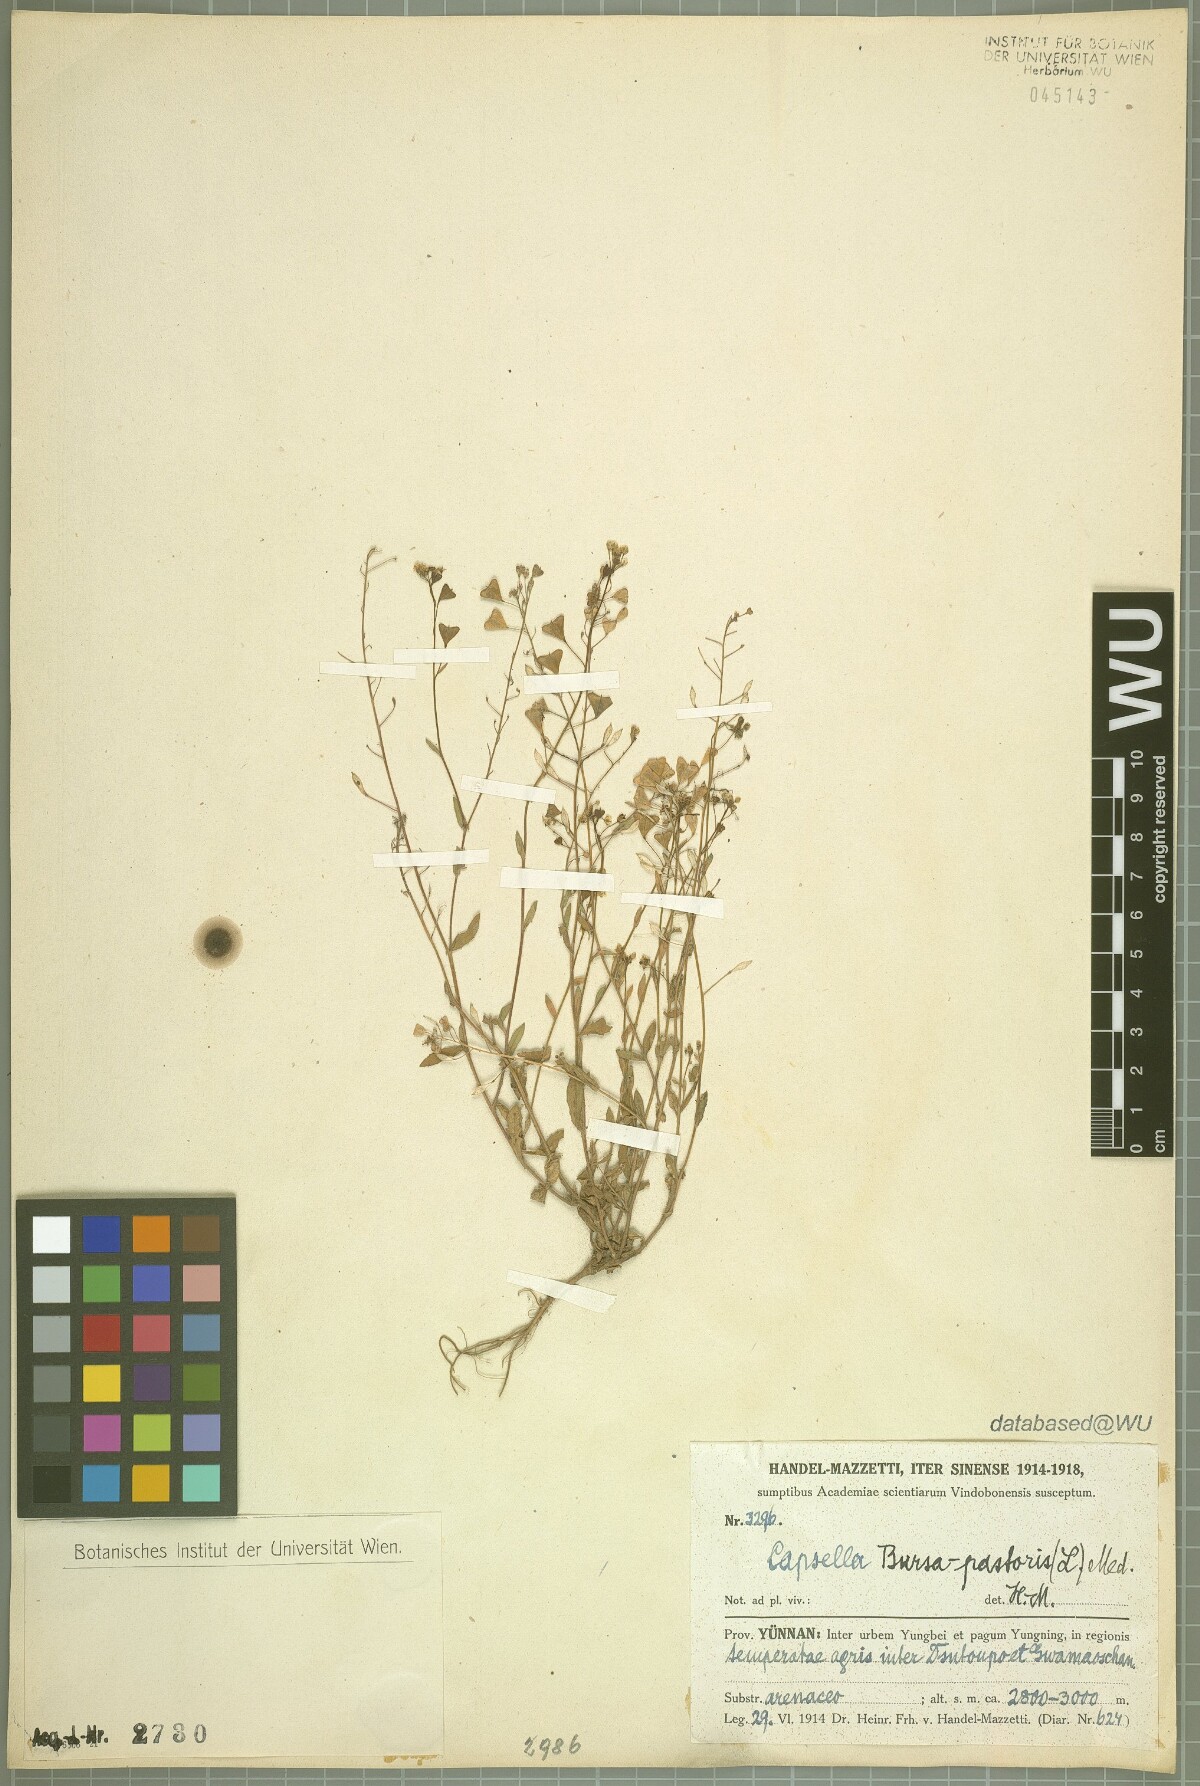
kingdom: Plantae
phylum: Tracheophyta
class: Magnoliopsida
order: Brassicales
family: Brassicaceae
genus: Capsella
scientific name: Capsella bursa-pastoris
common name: Shepherd's purse
